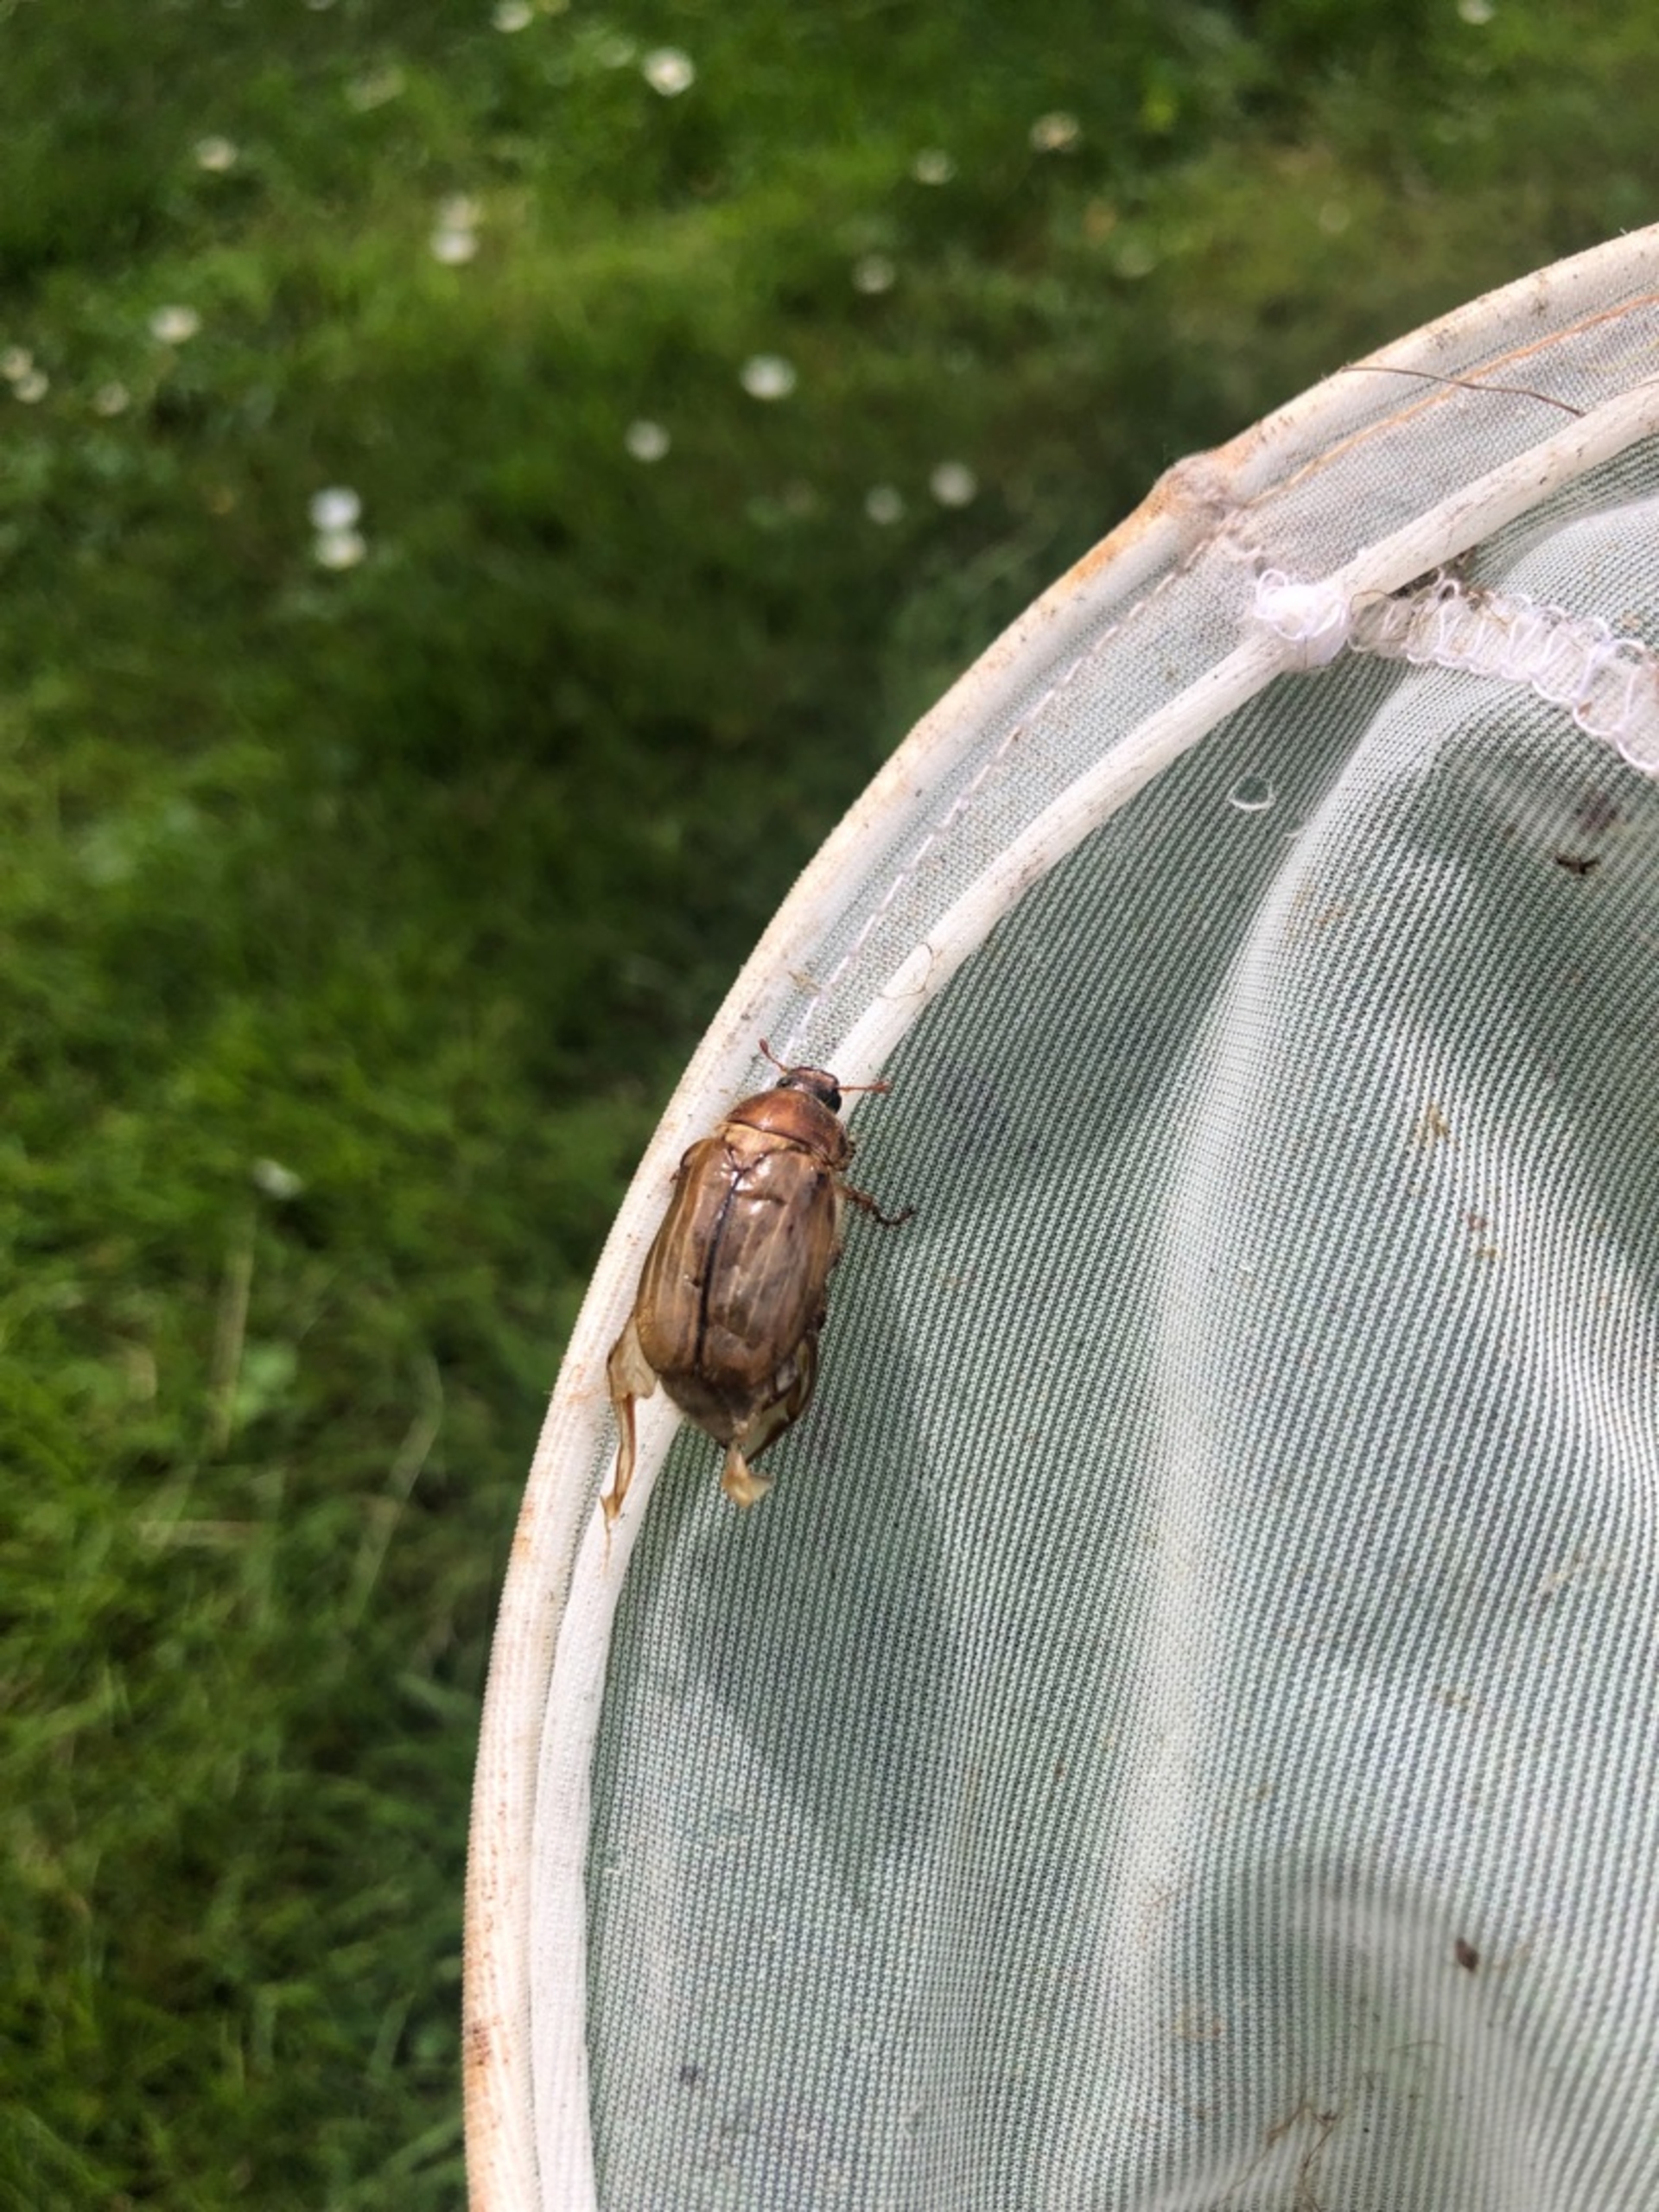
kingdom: Animalia
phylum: Arthropoda
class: Insecta
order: Coleoptera
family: Scarabaeidae
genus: Amphimallon
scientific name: Amphimallon solstitiale
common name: Sankthansoldenborre
